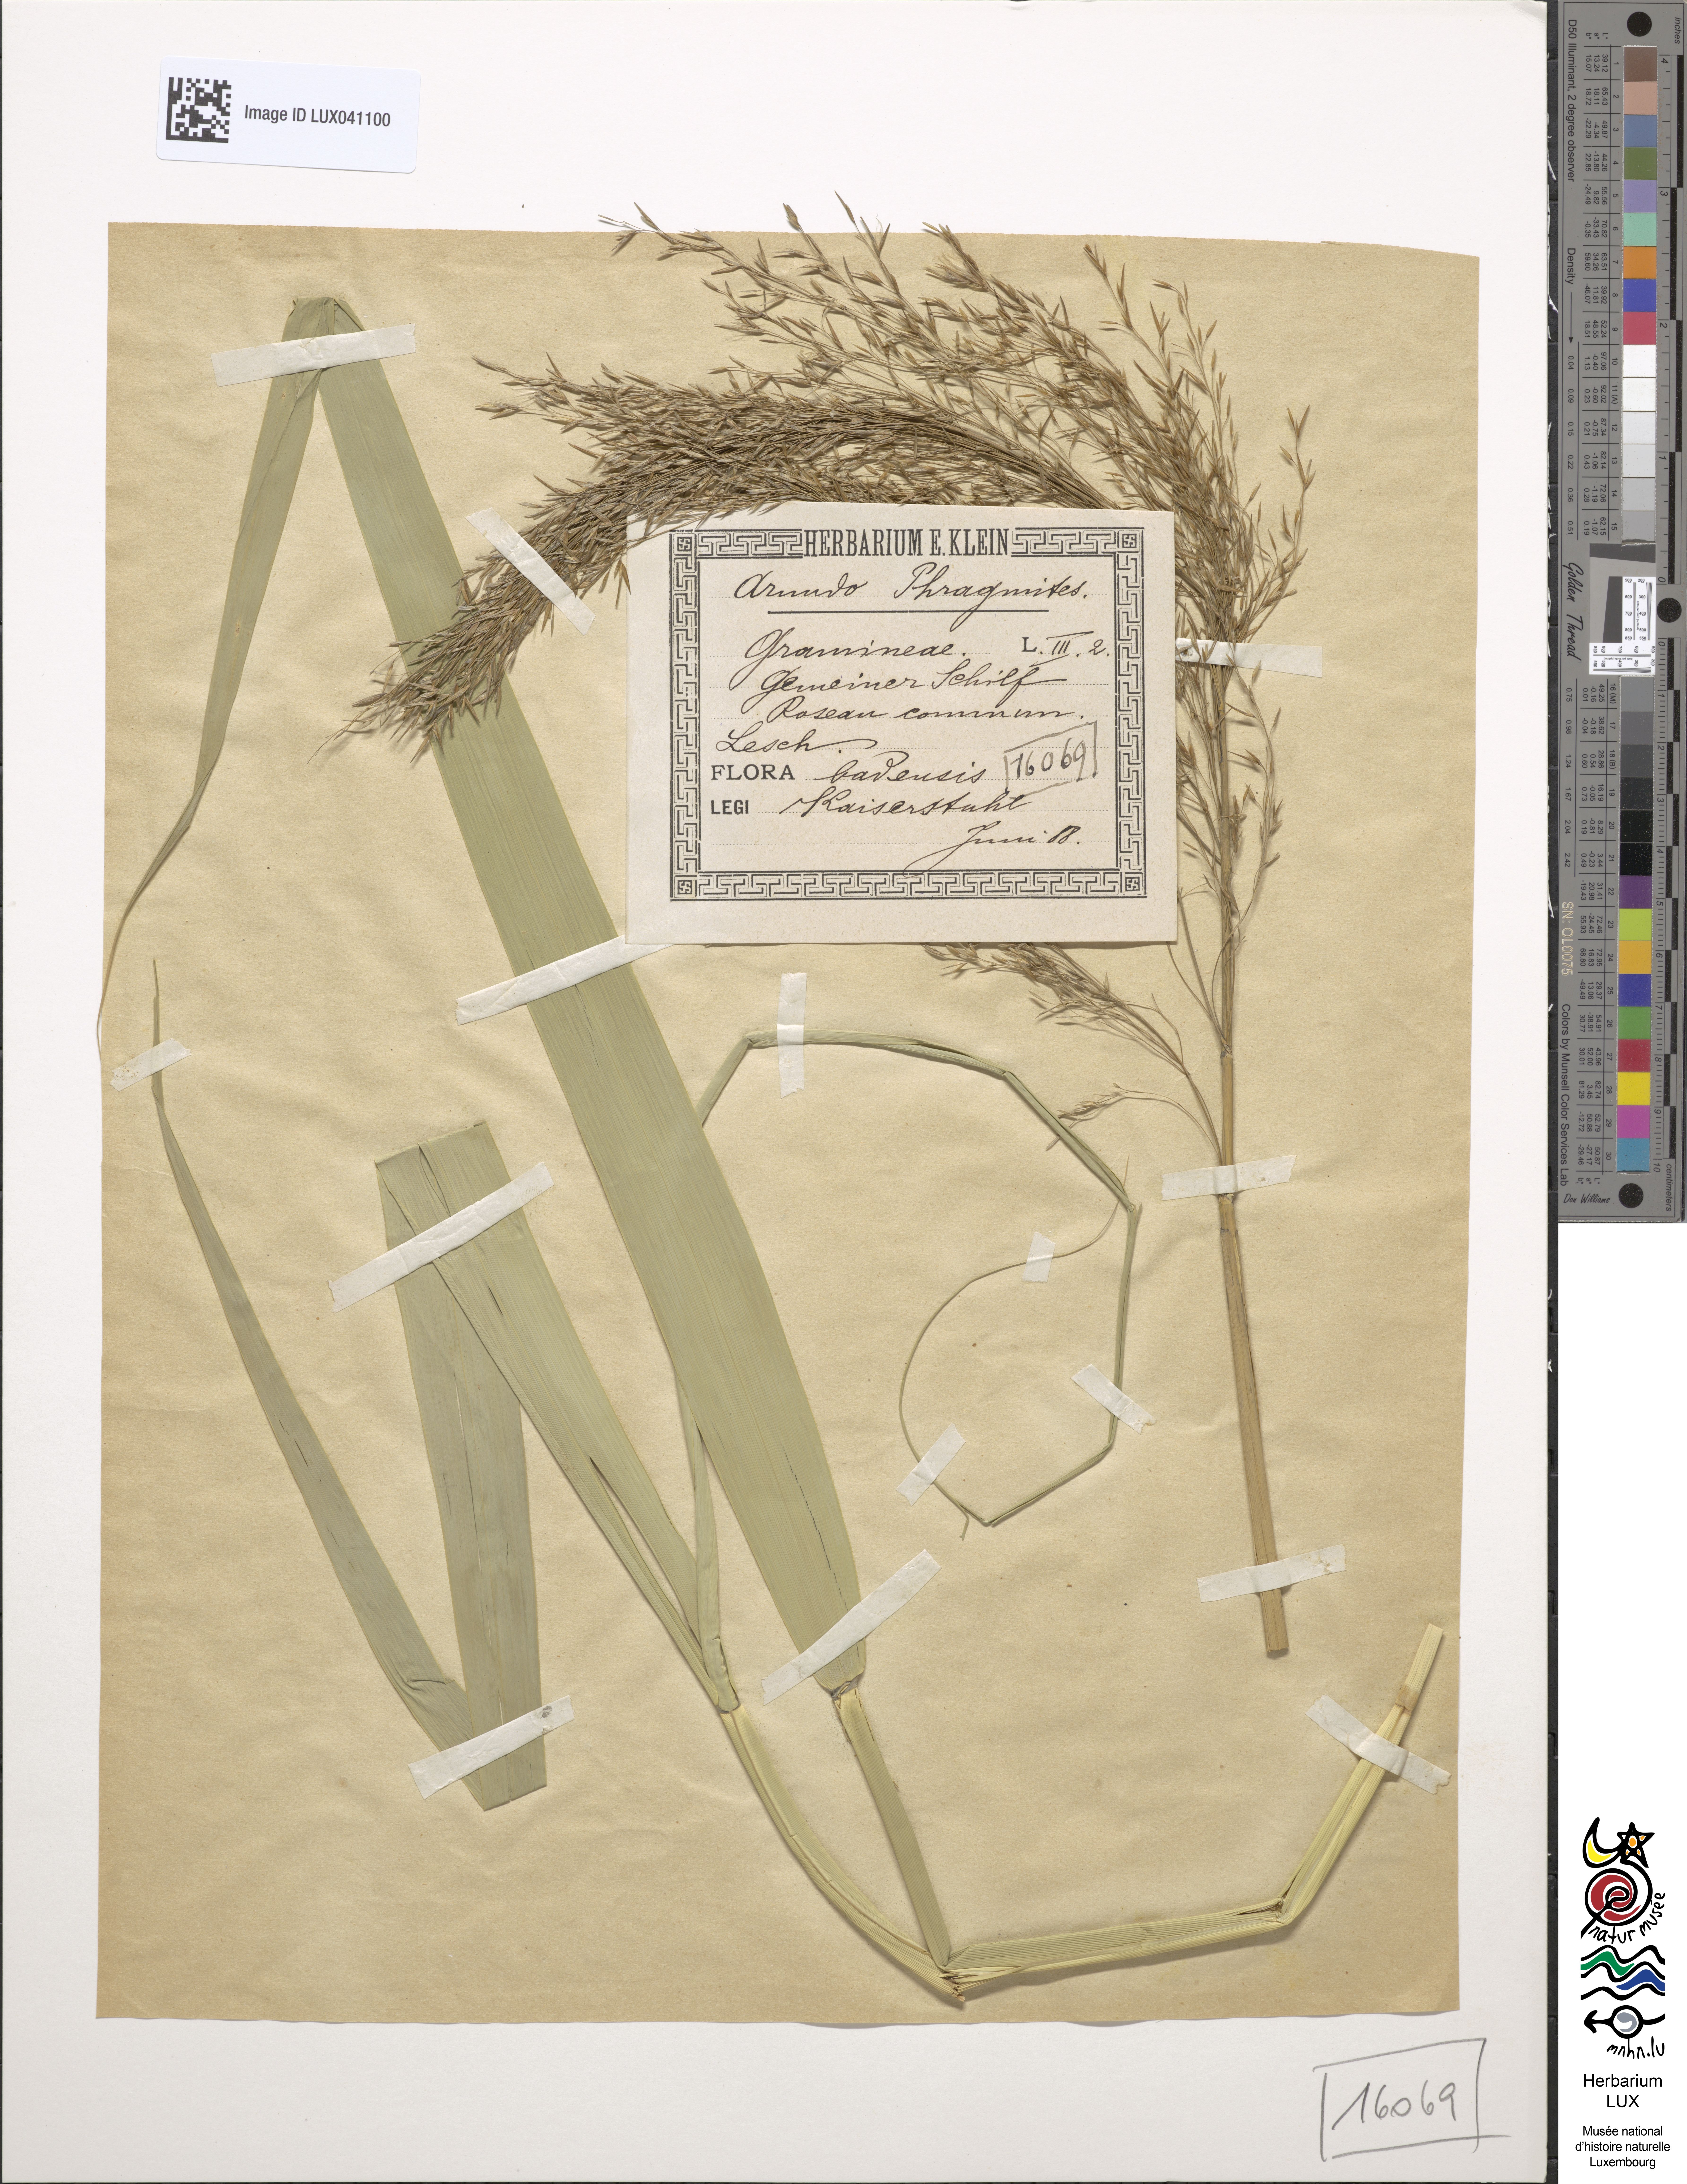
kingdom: Plantae
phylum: Tracheophyta
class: Liliopsida
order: Poales
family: Poaceae
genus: Phragmites
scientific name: Phragmites australis
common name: Common reed
